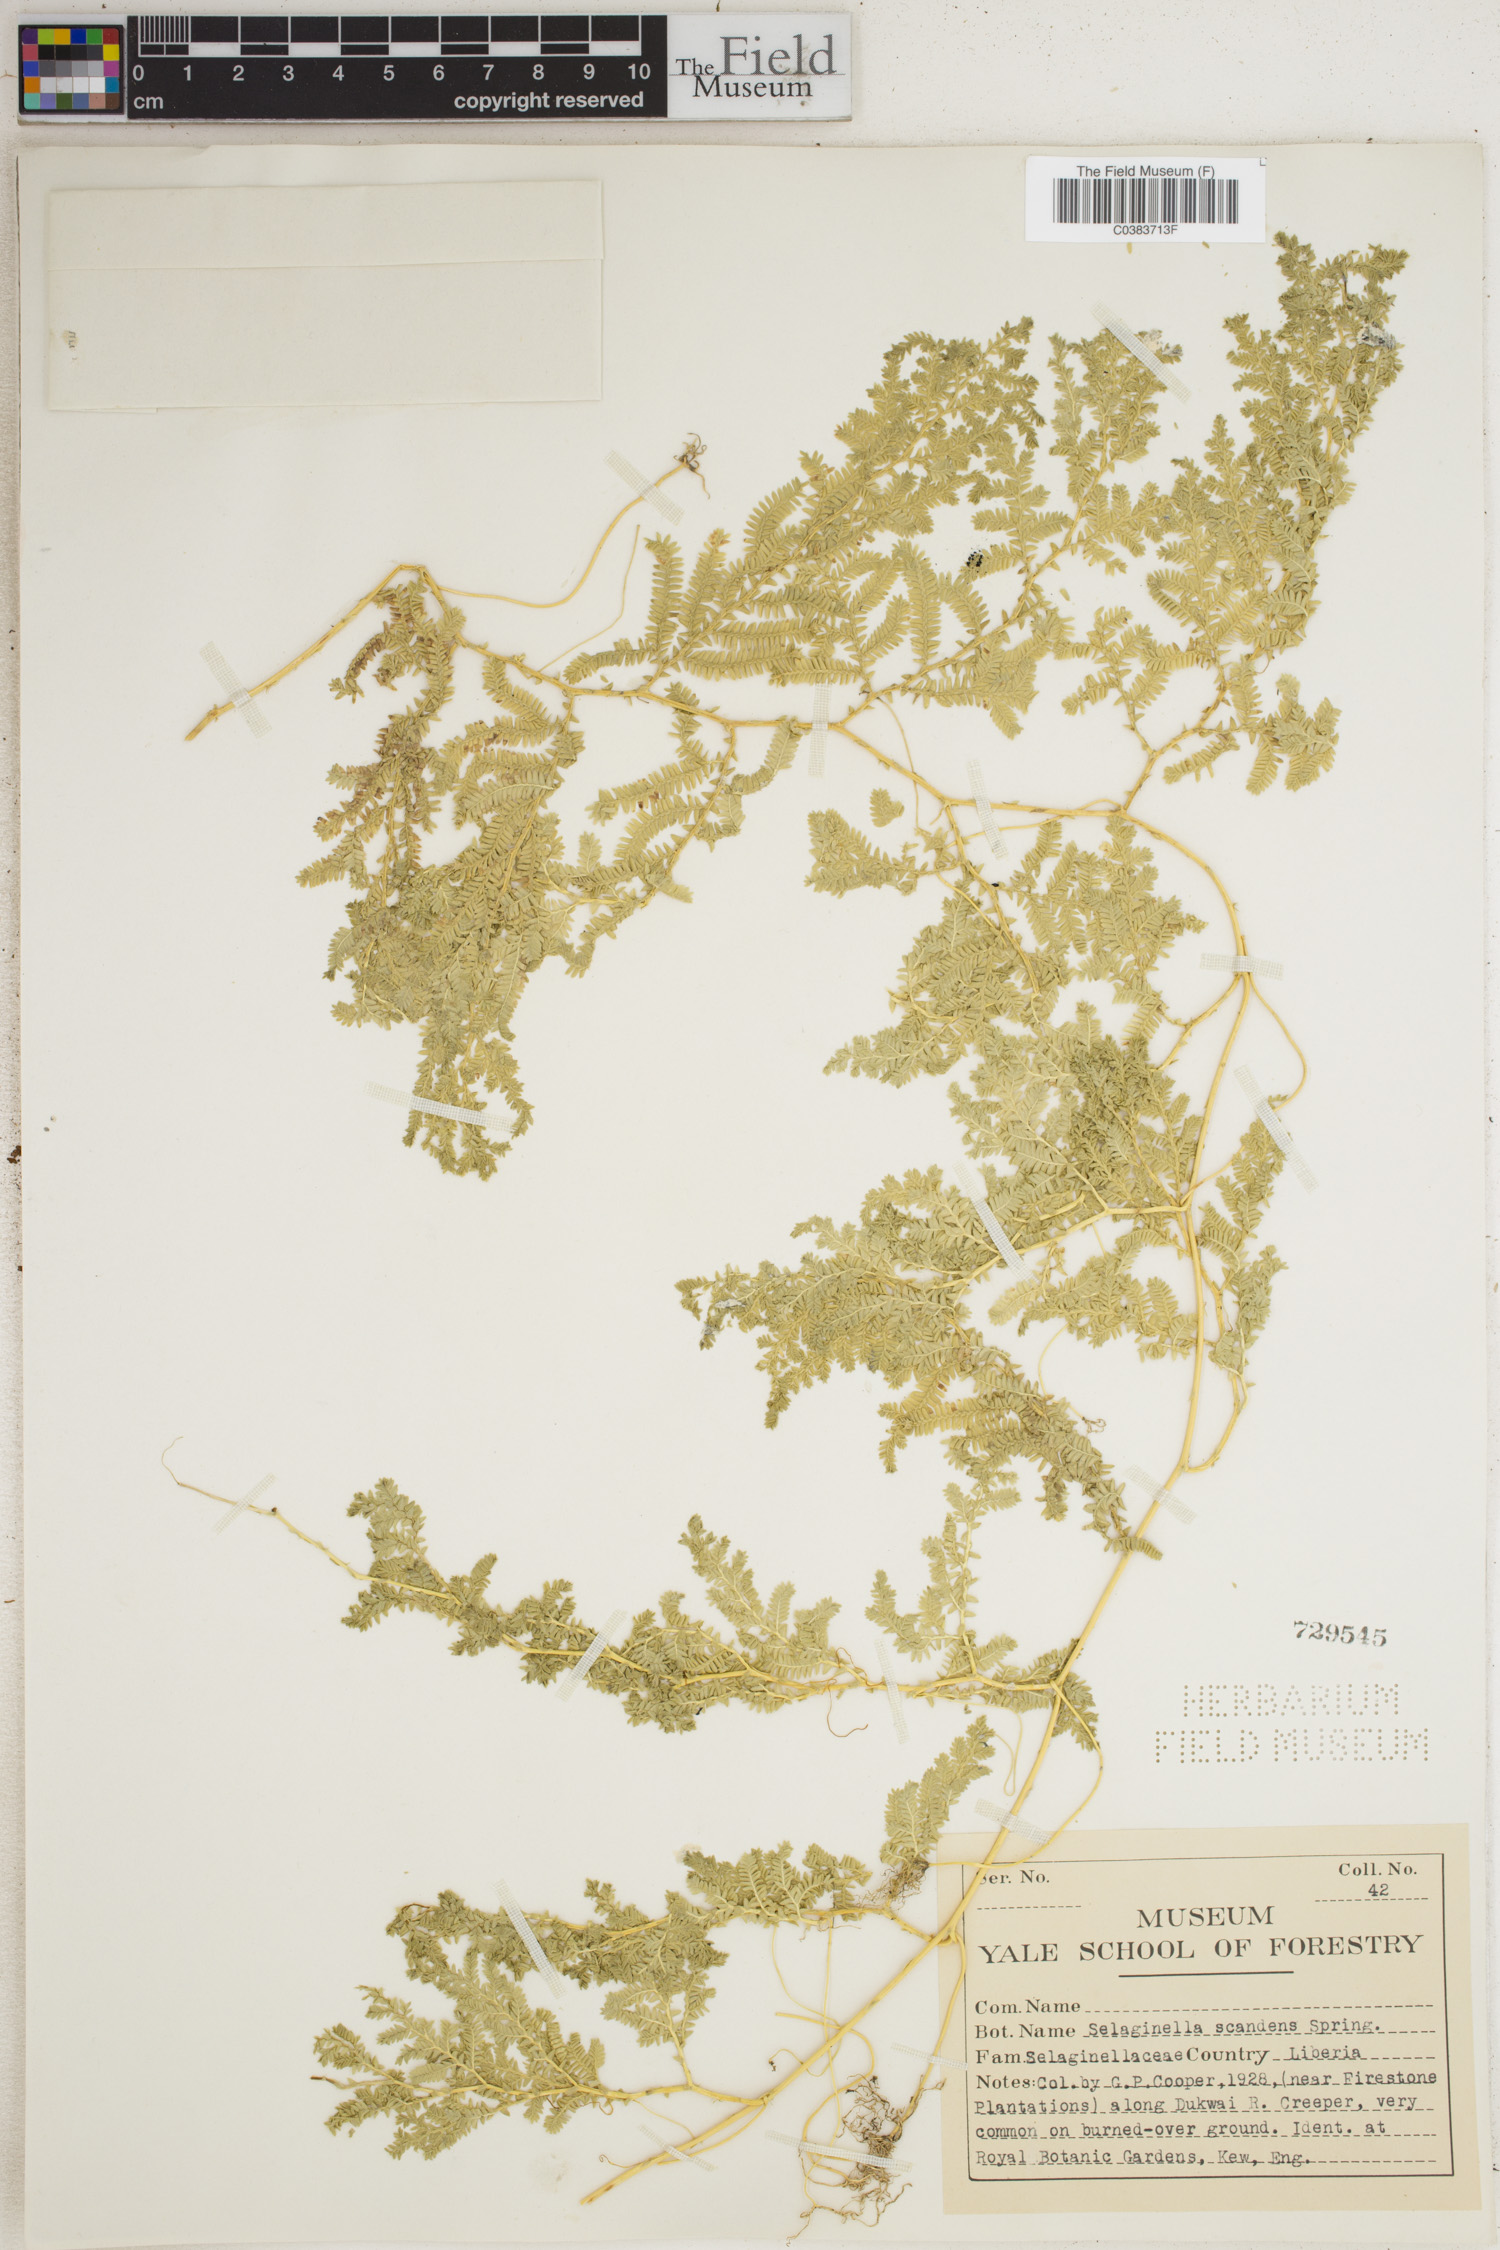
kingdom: Plantae
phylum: Tracheophyta
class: Lycopodiopsida
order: Selaginellales
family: Selaginellaceae
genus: Selaginella
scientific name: Selaginella myosurus
